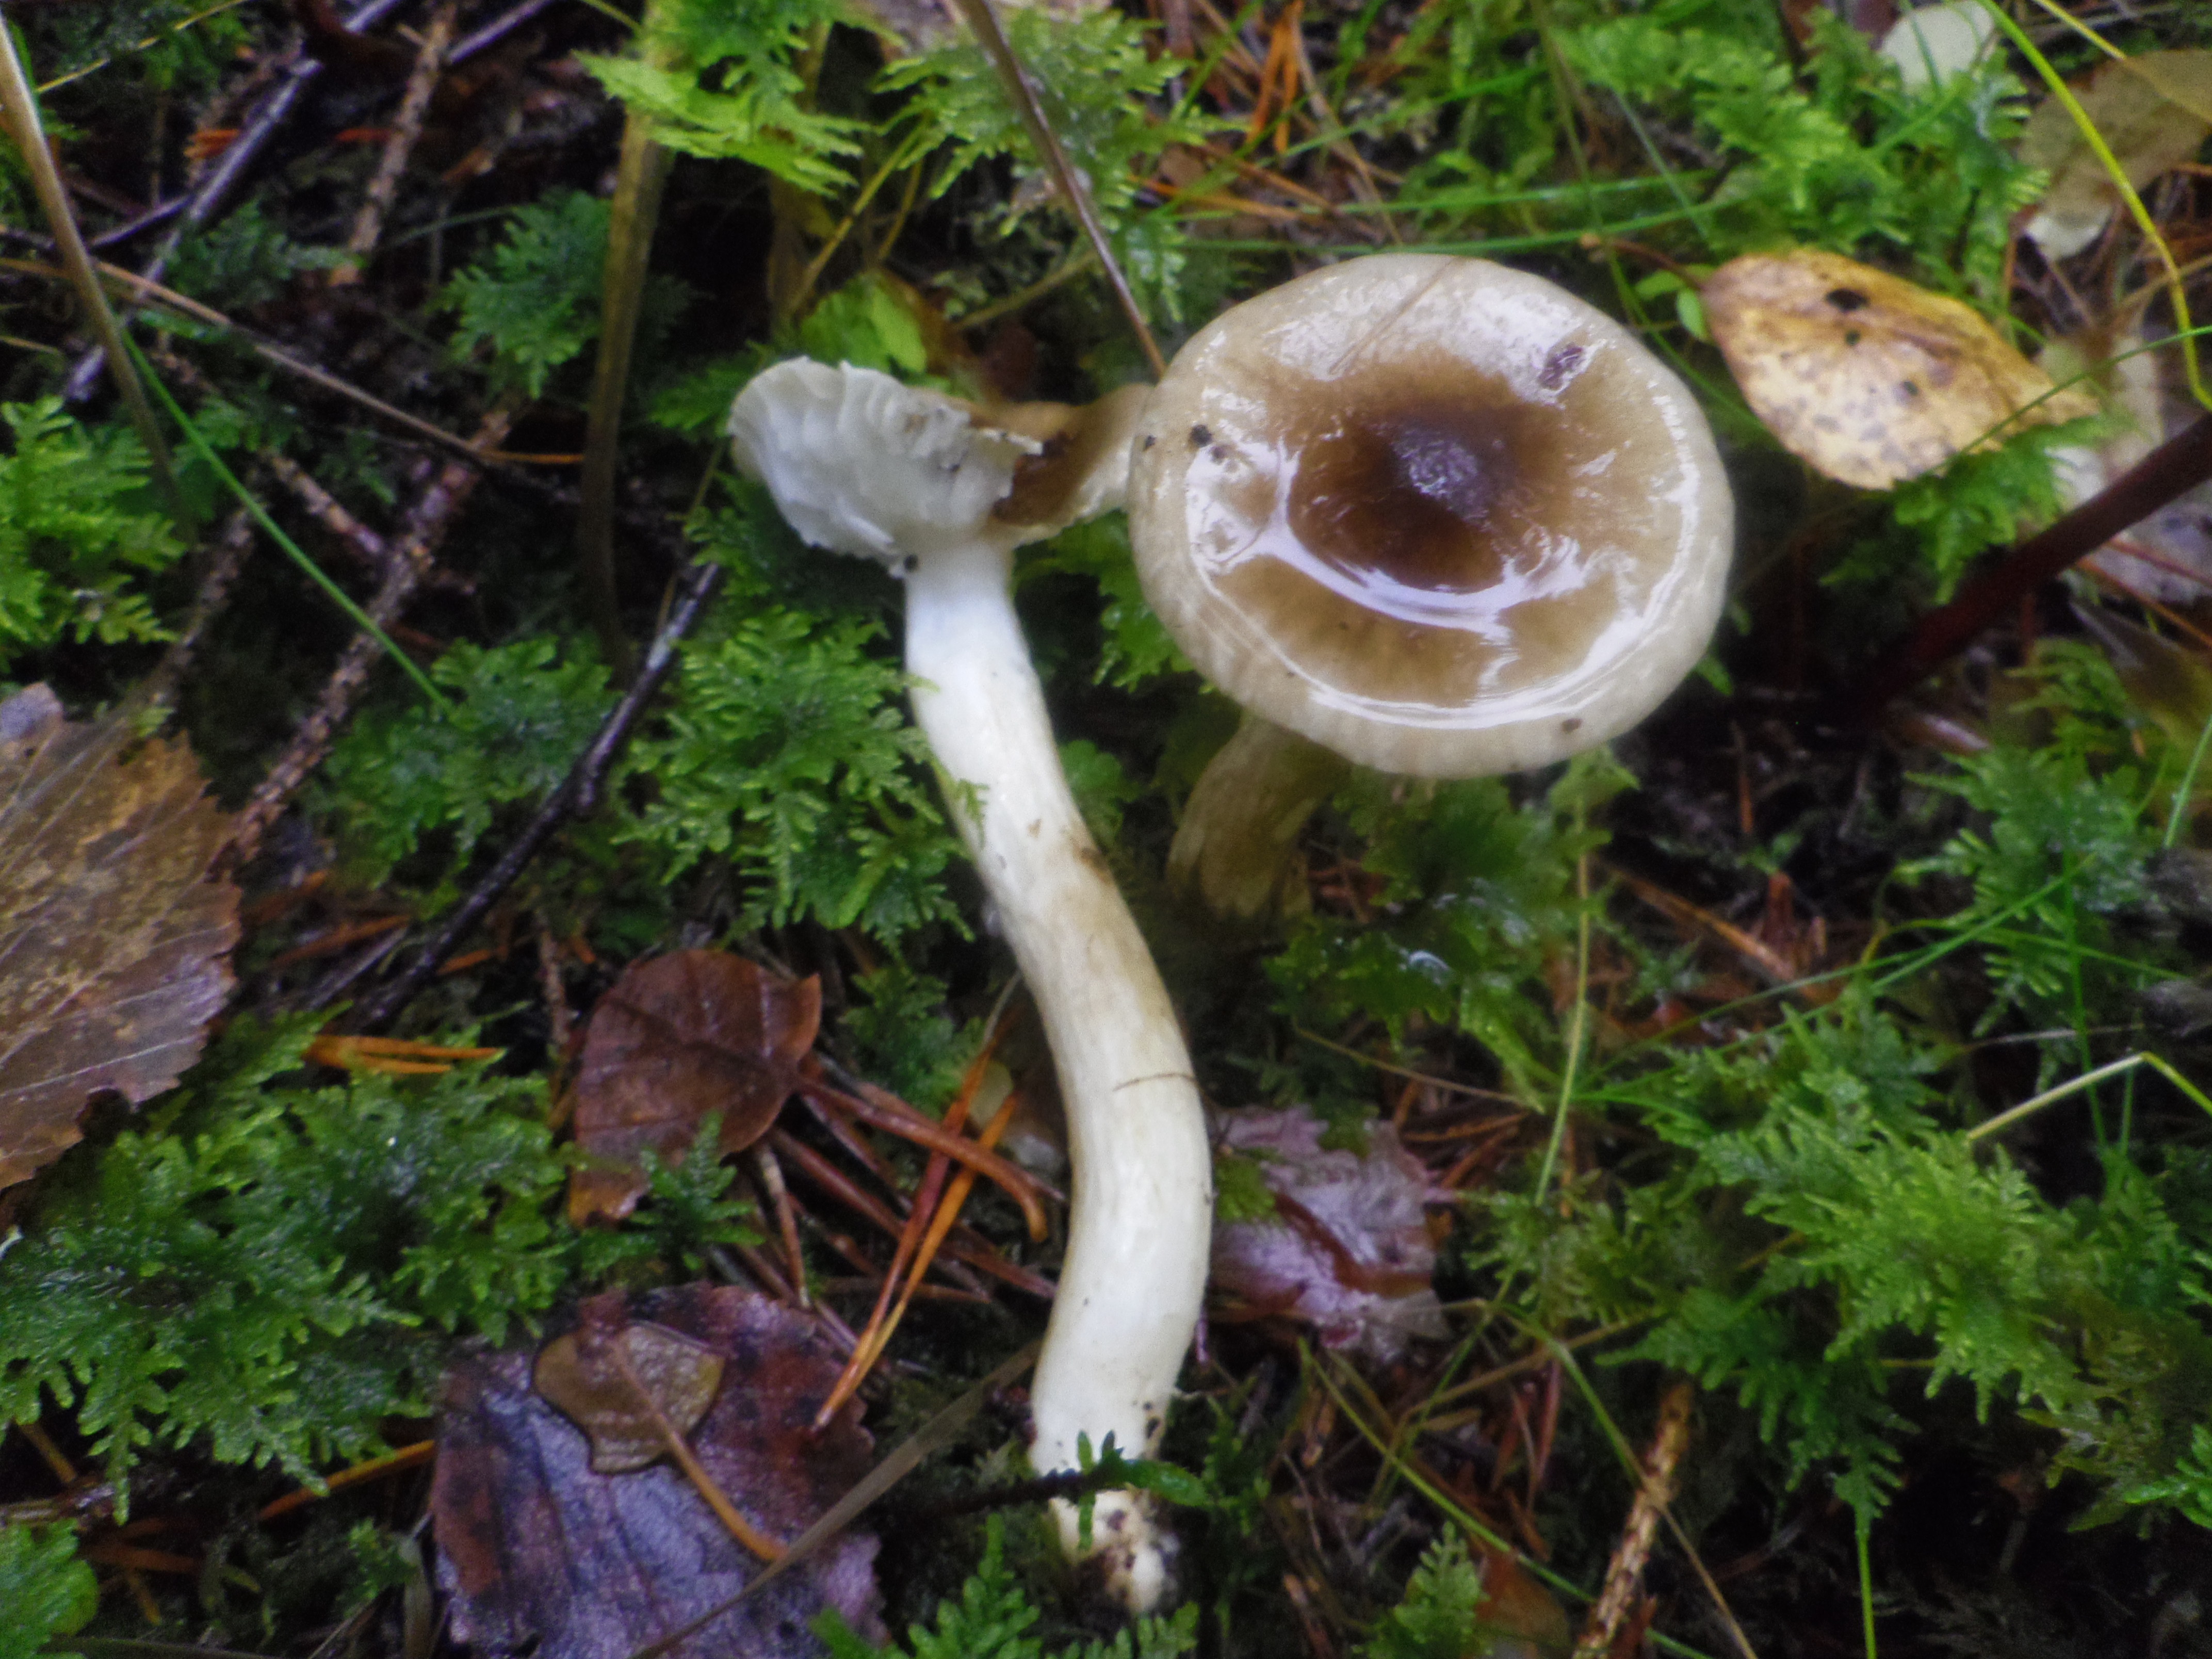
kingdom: Fungi
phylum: Basidiomycota
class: Agaricomycetes
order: Agaricales
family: Hygrophoraceae
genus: Hygrophorus
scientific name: Hygrophorus olivaceoalbus
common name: Olive wax cap
